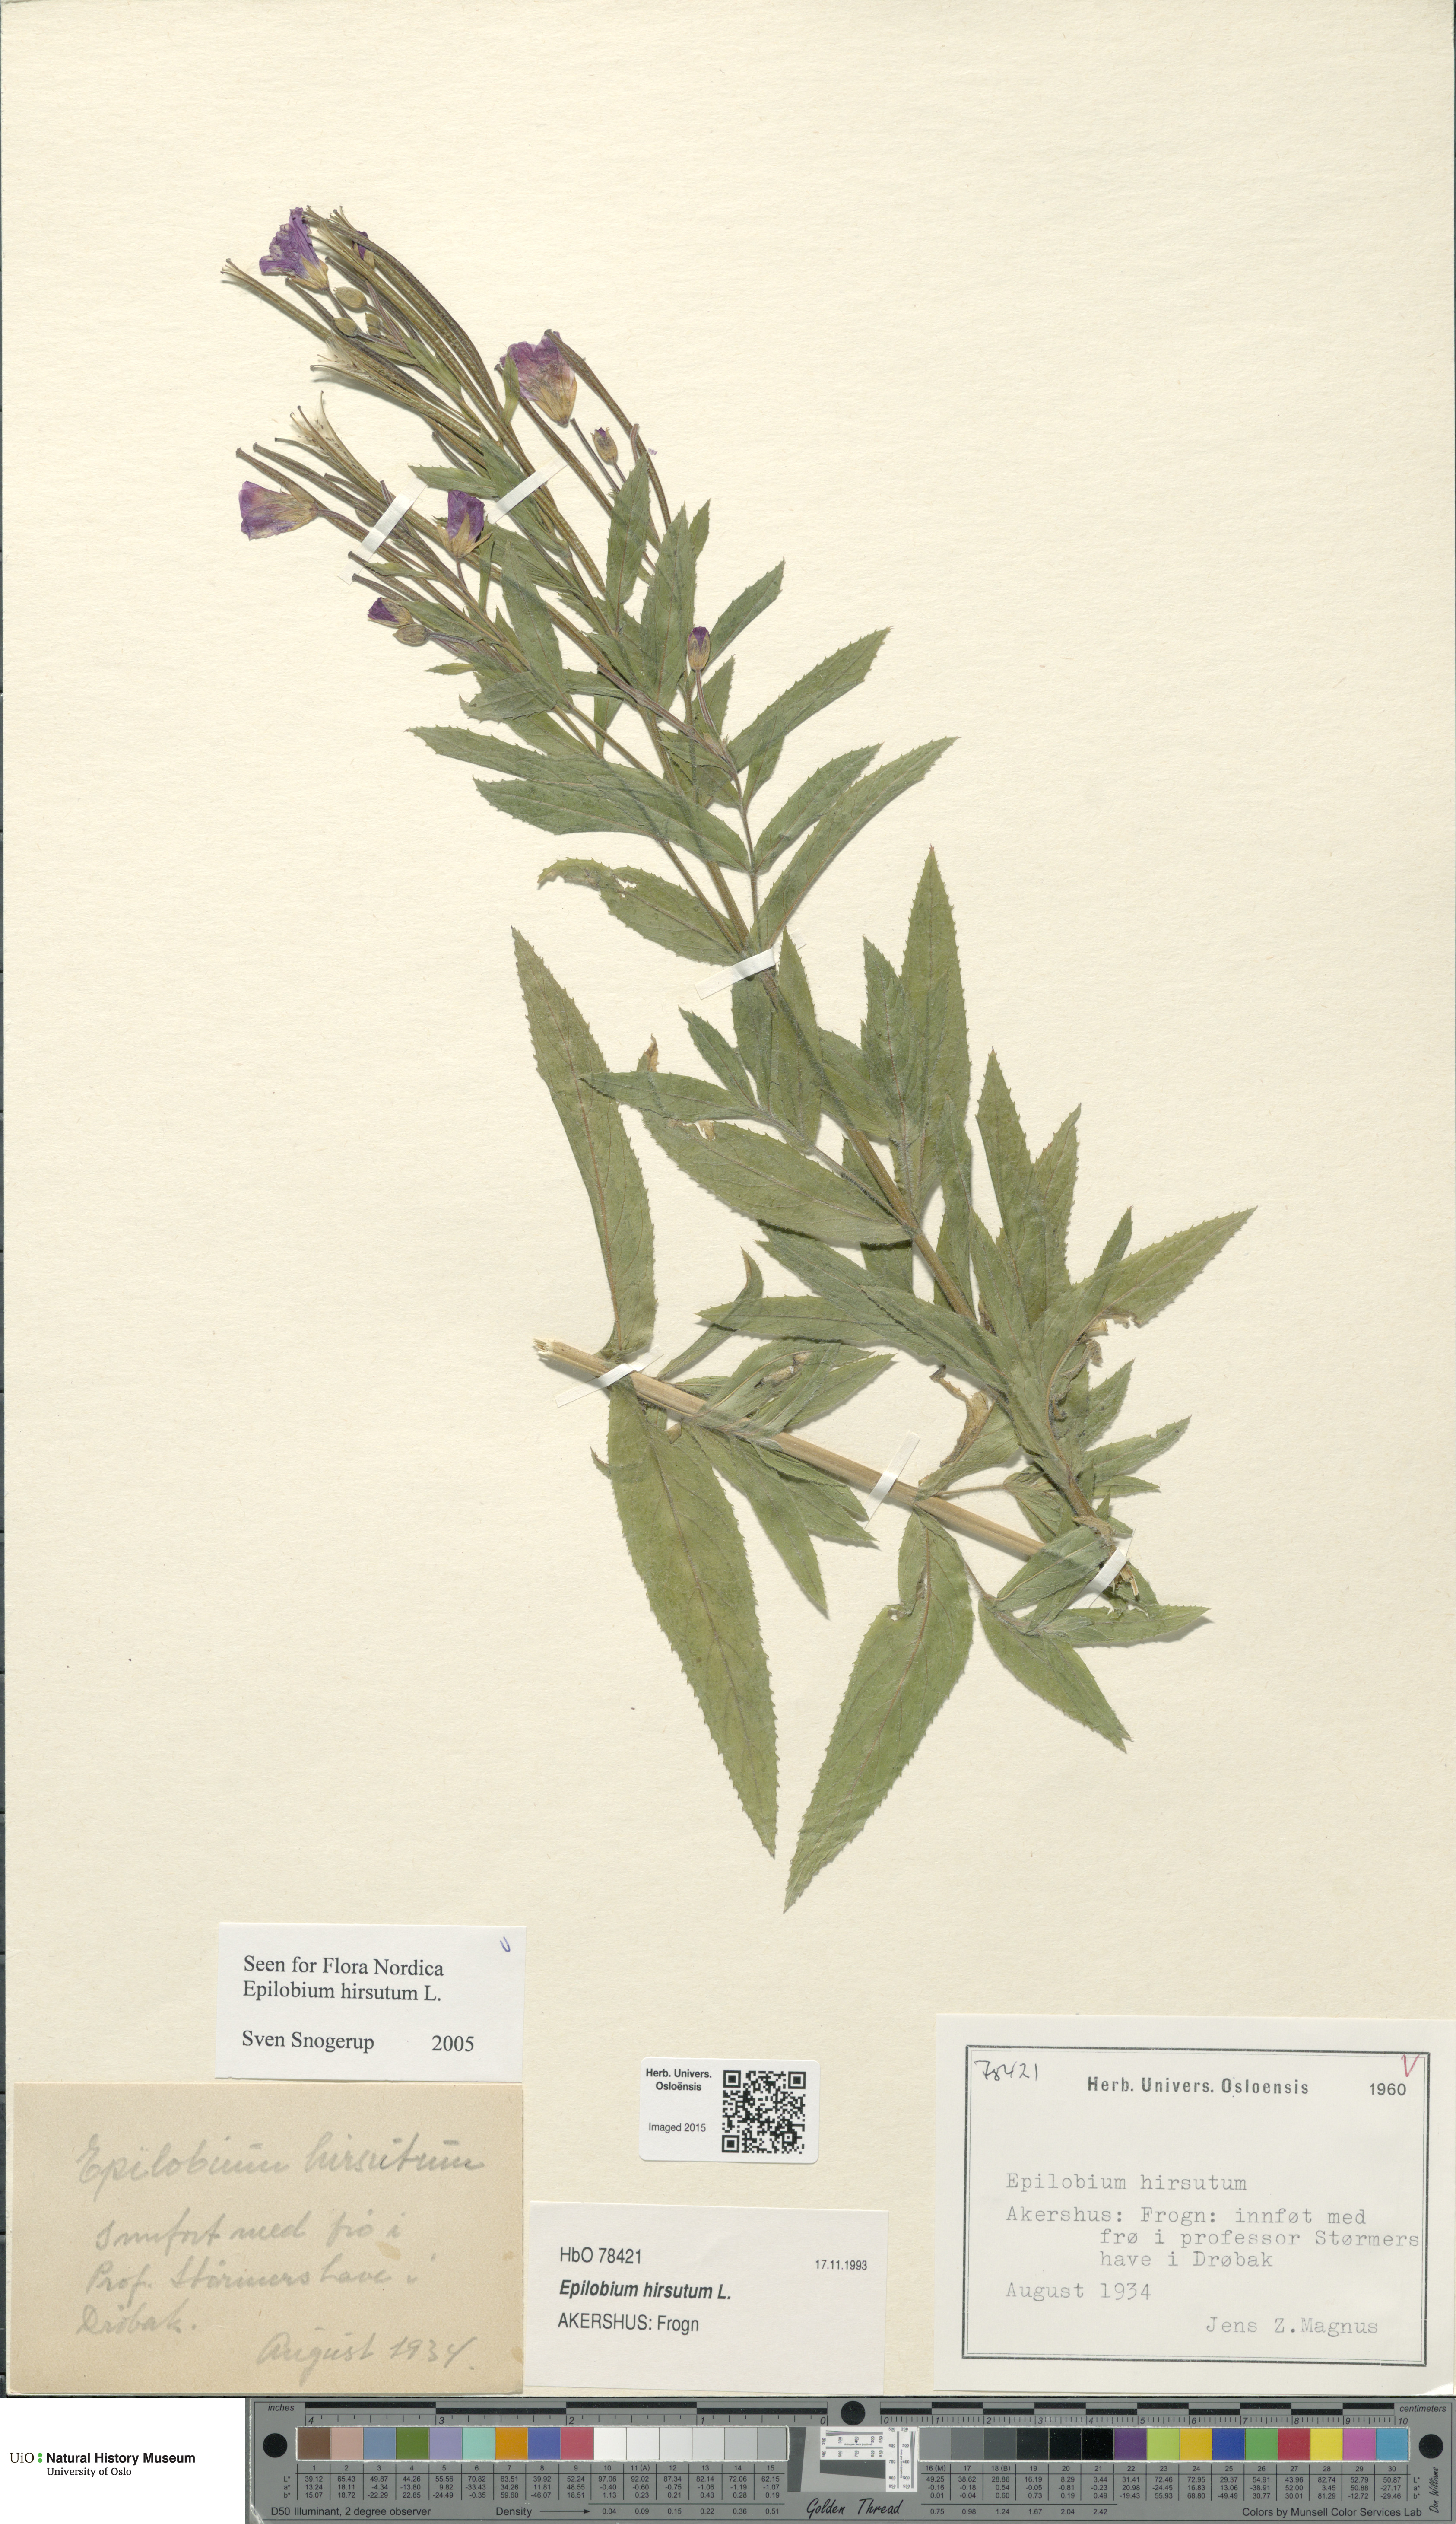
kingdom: Plantae
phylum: Tracheophyta
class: Magnoliopsida
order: Myrtales
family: Onagraceae
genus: Epilobium
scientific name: Epilobium hirsutum
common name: Great willowherb
